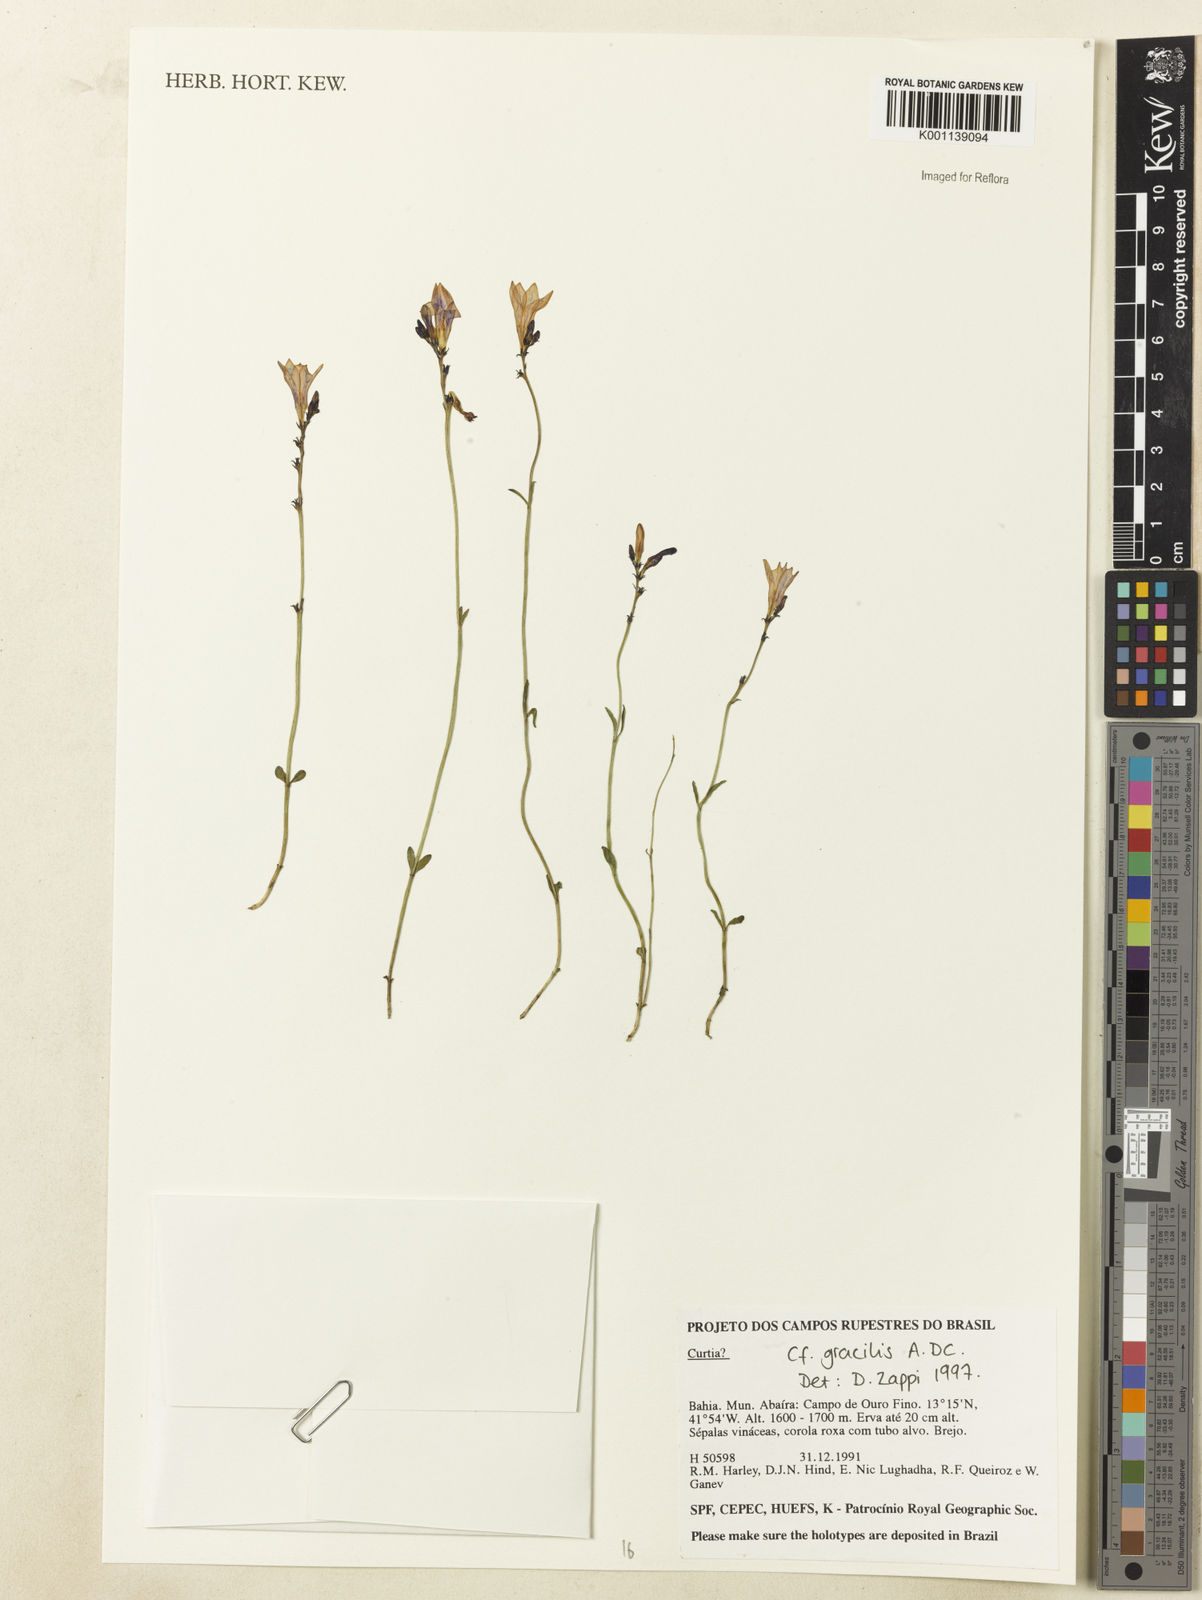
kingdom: Plantae
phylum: Tracheophyta
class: Magnoliopsida
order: Gentianales
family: Gentianaceae
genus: Curtia
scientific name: Curtia
